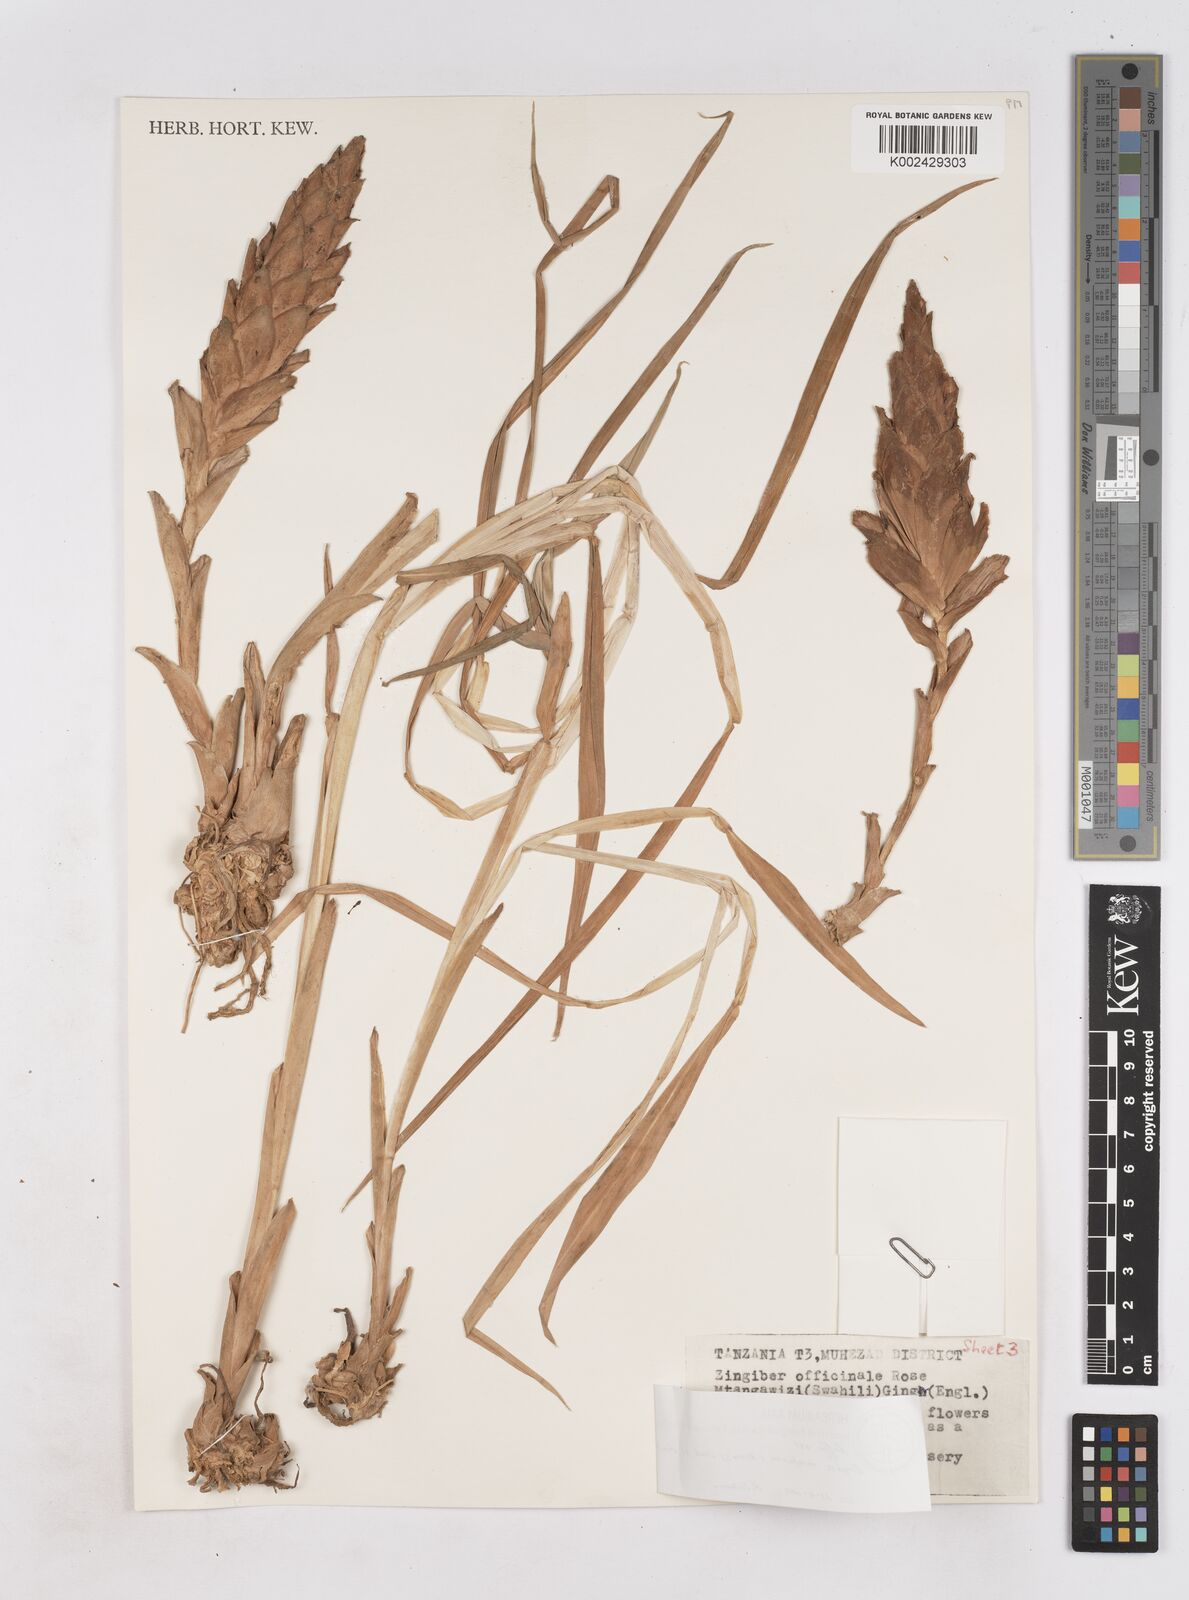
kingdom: Plantae
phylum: Tracheophyta
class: Liliopsida
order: Zingiberales
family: Zingiberaceae
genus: Zingiber
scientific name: Zingiber montanum
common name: Bengal ginger
